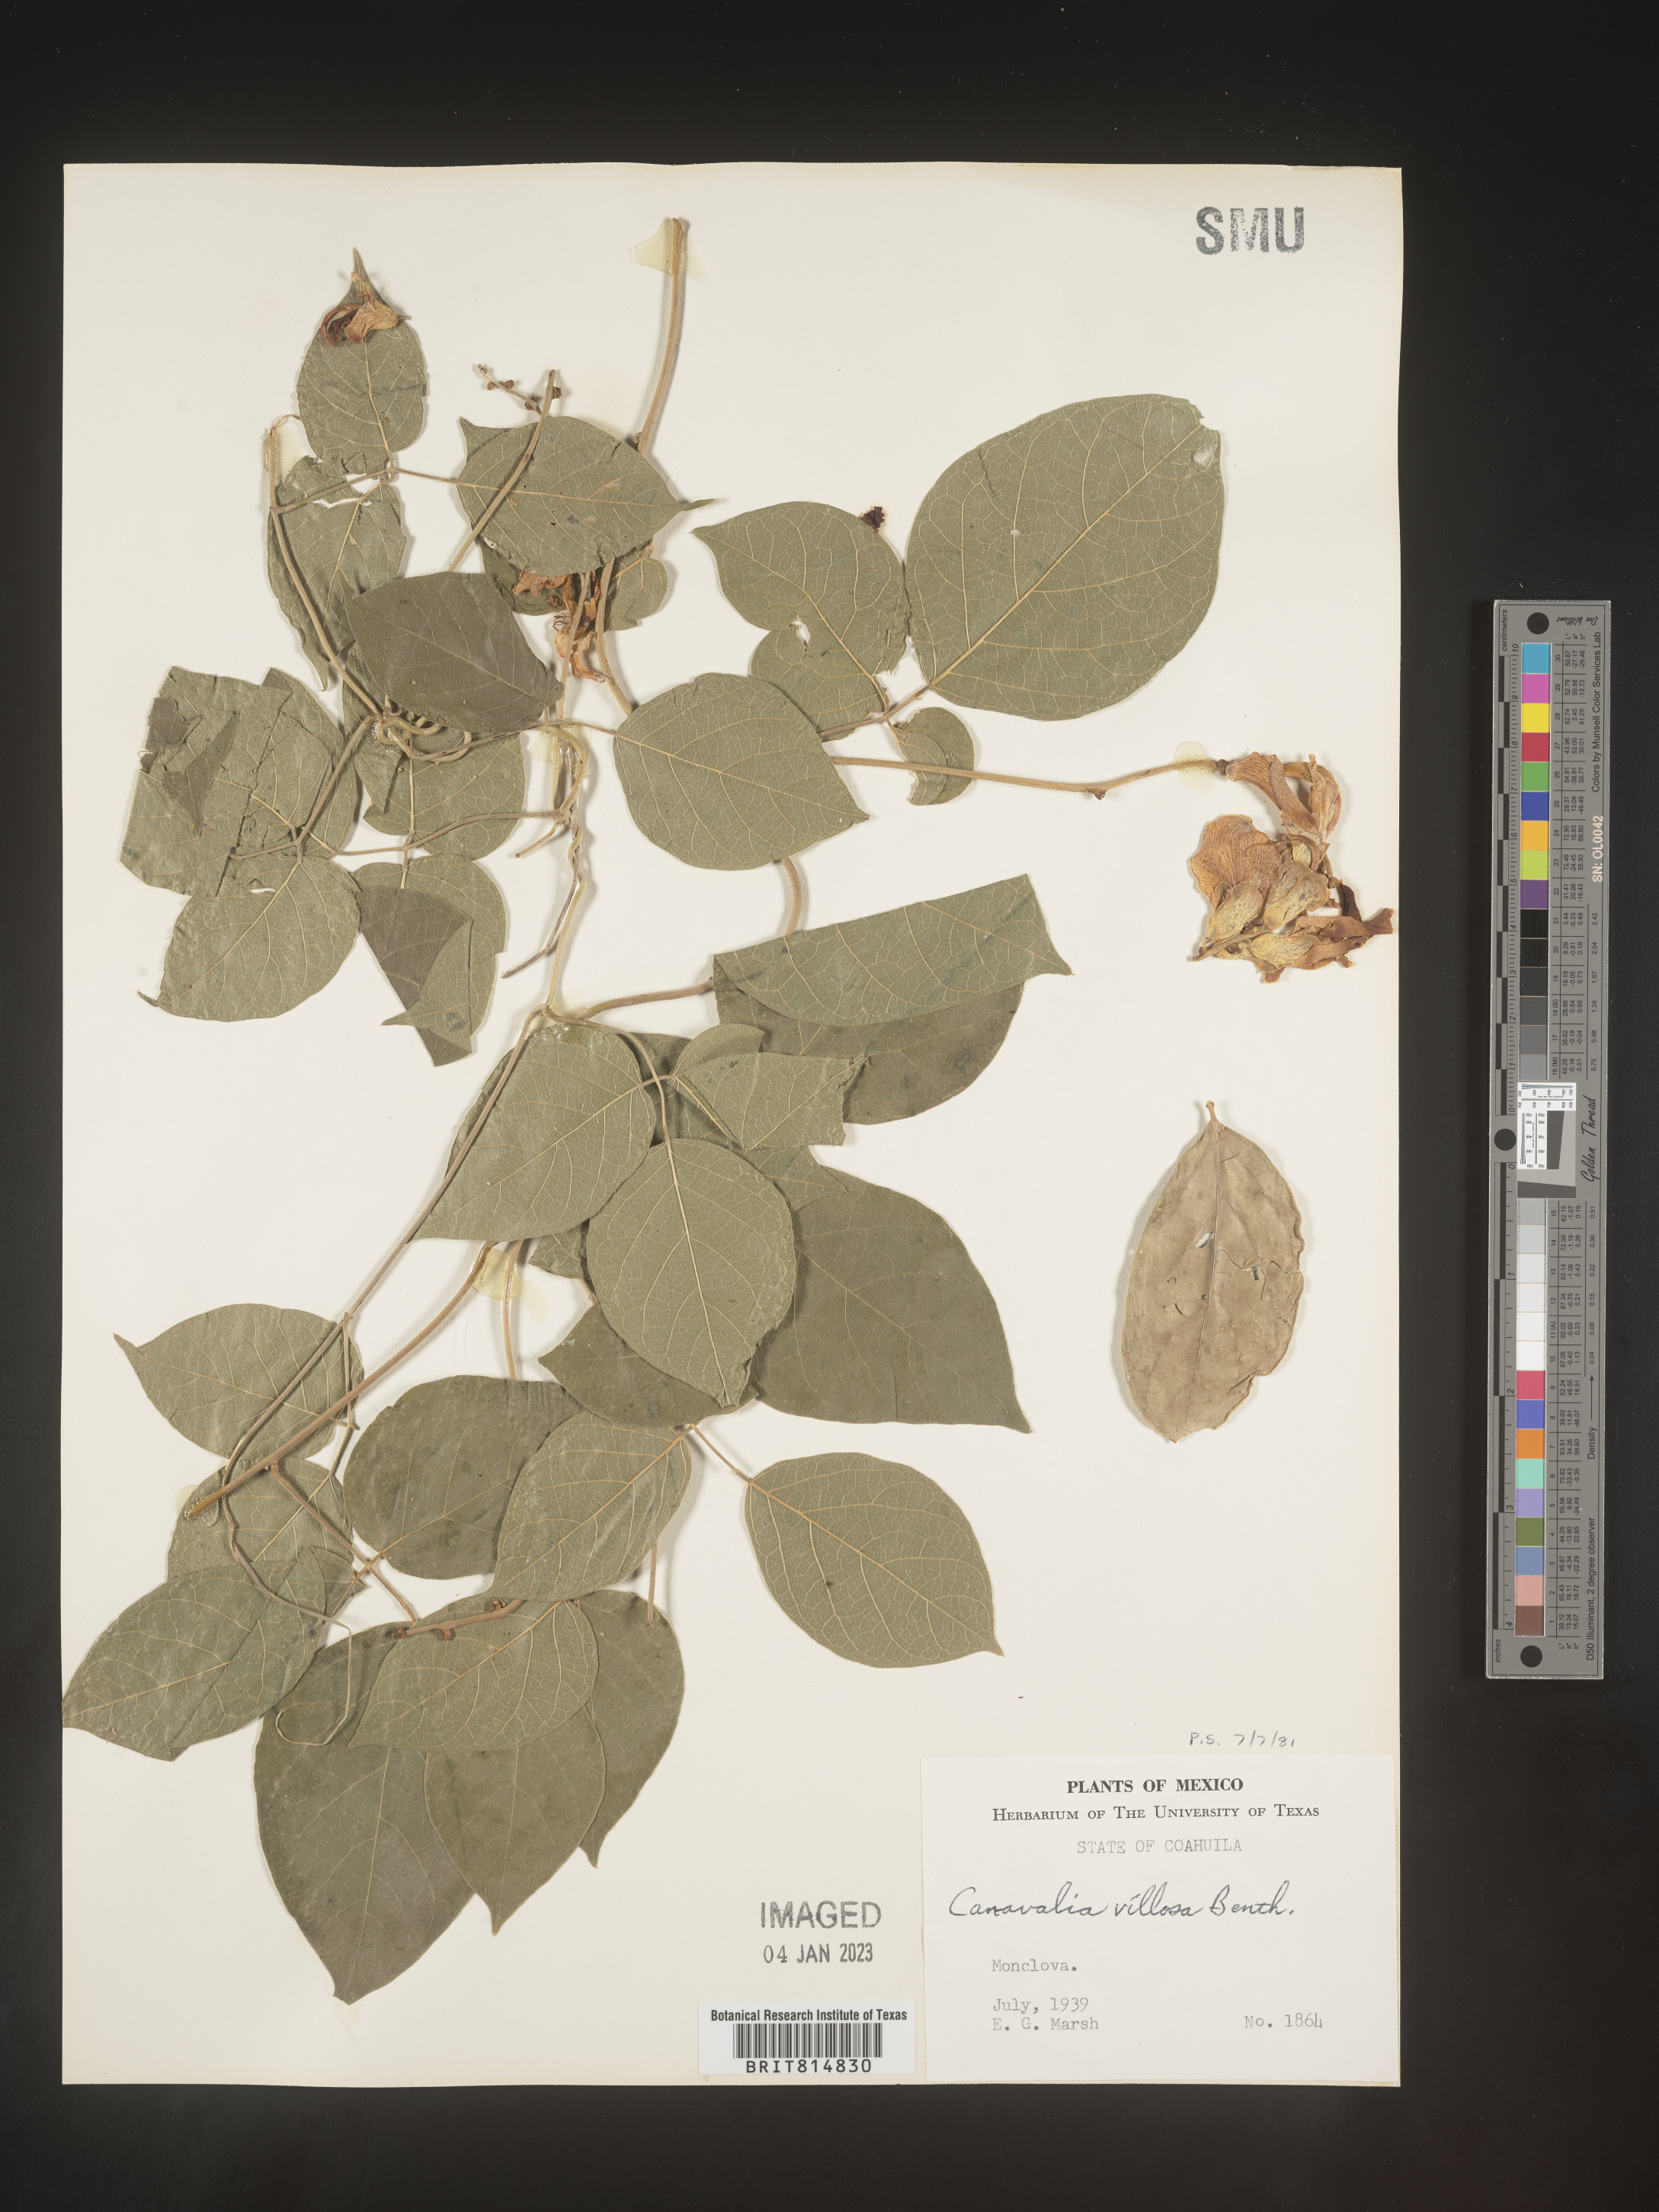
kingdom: Plantae
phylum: Tracheophyta
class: Magnoliopsida
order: Fabales
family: Fabaceae
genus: Canavalia
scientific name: Canavalia
